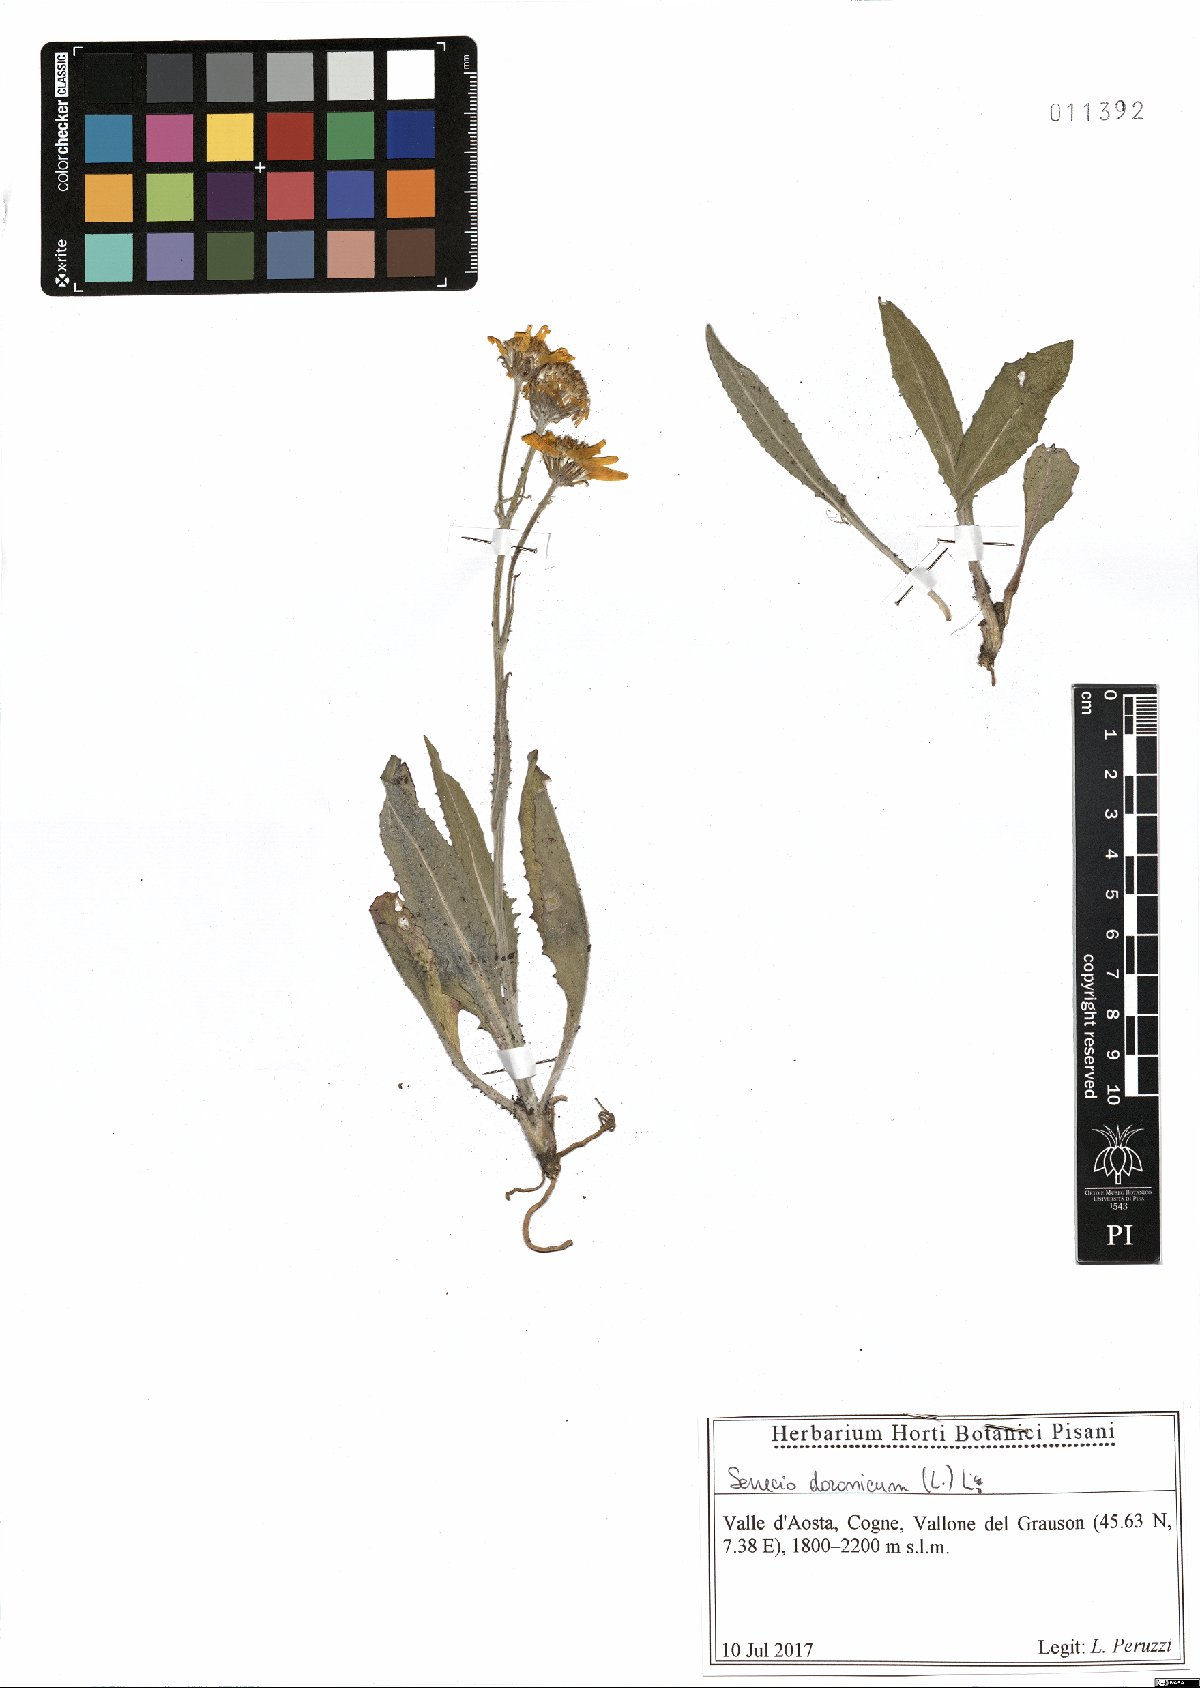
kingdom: Plantae
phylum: Tracheophyta
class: Magnoliopsida
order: Asterales
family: Asteraceae
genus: Senecio
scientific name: Senecio doronicum
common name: Chamois ragwort
